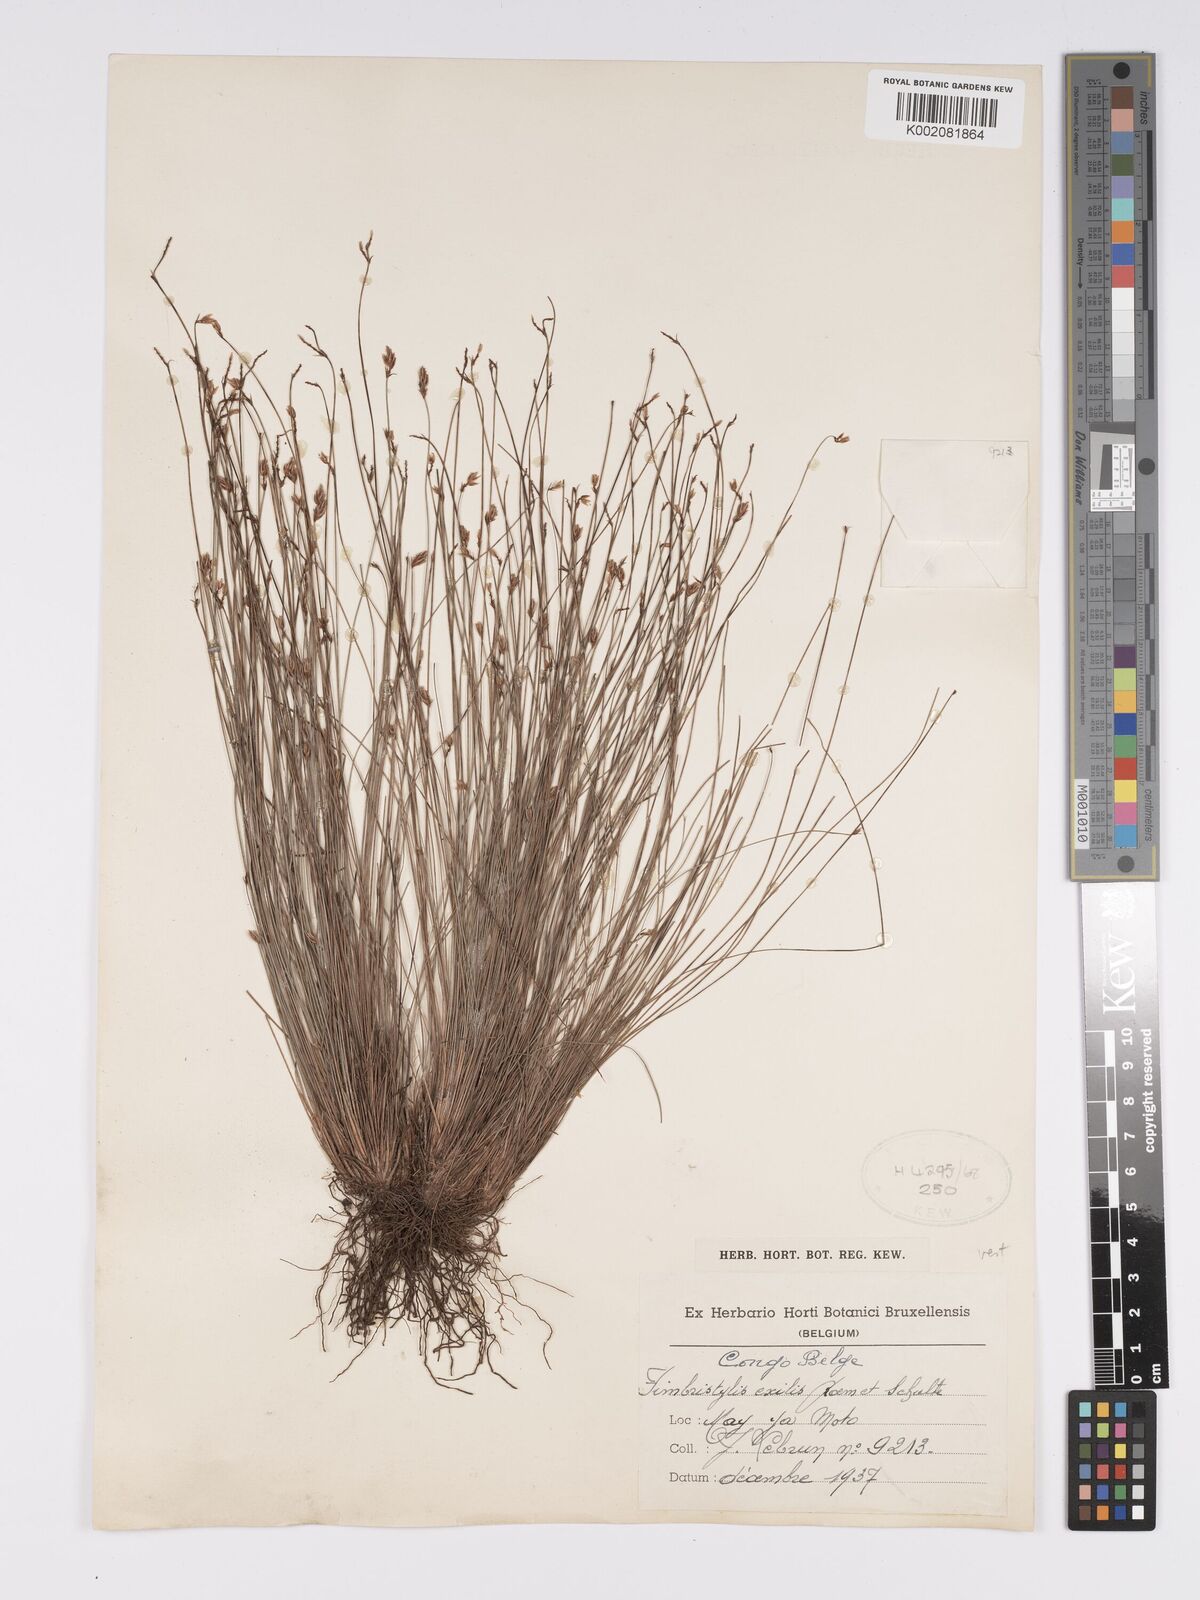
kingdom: Plantae
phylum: Tracheophyta
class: Liliopsida
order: Poales
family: Cyperaceae
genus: Bulbostylis
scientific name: Bulbostylis hispidula
